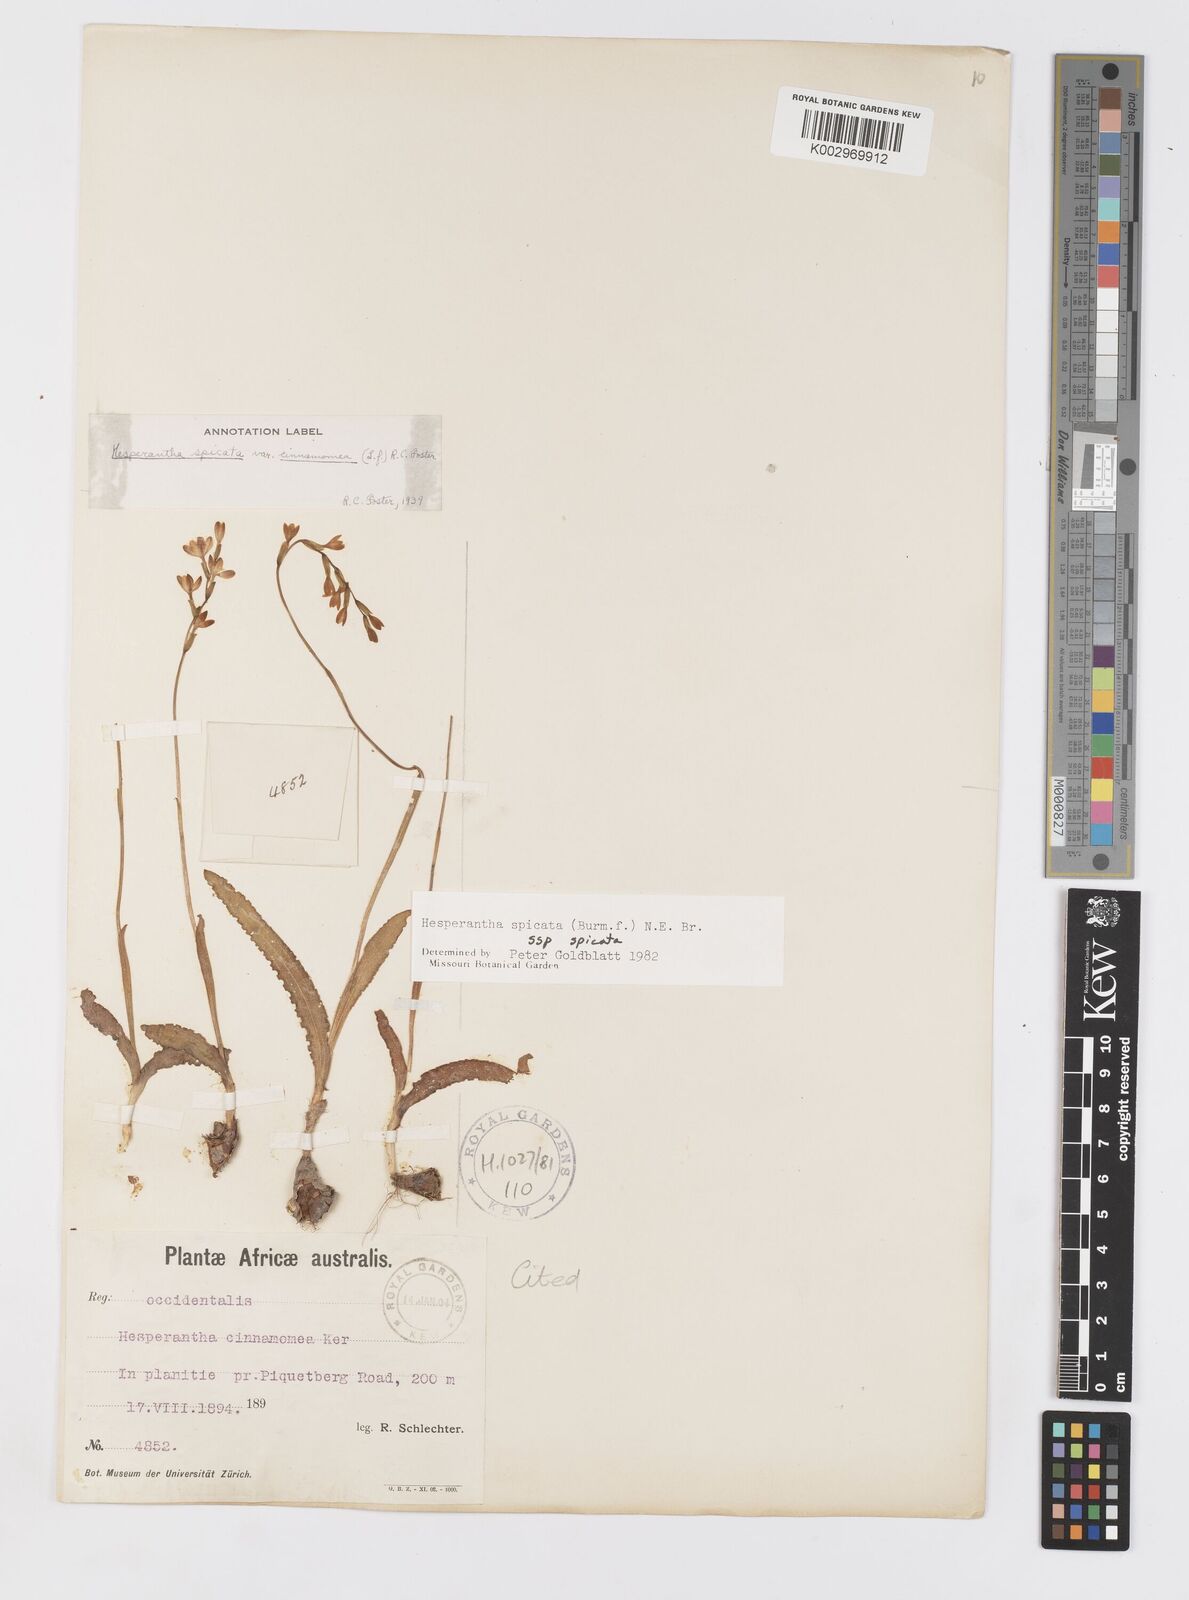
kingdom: Plantae
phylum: Tracheophyta
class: Liliopsida
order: Asparagales
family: Iridaceae
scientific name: Iridaceae
